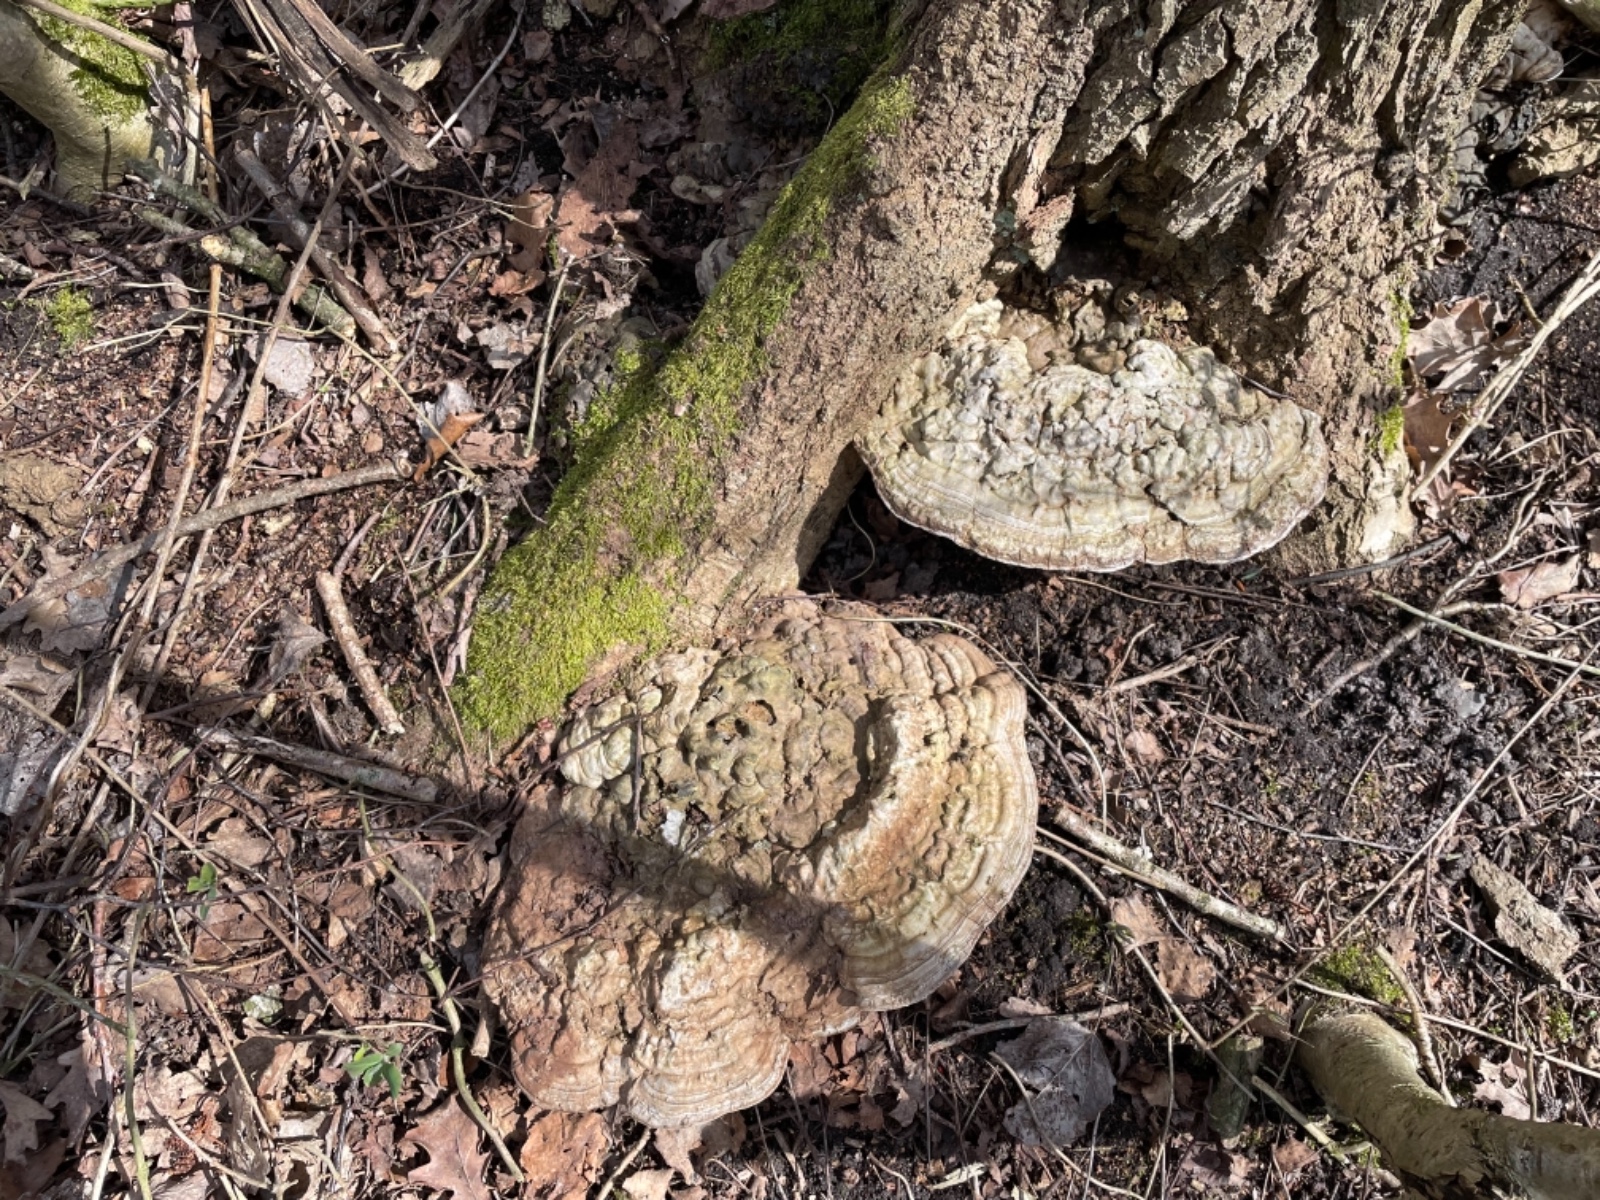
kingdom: Fungi
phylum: Basidiomycota
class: Agaricomycetes
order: Polyporales
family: Polyporaceae
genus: Ganoderma
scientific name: Ganoderma applanatum
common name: flad lakporesvamp
